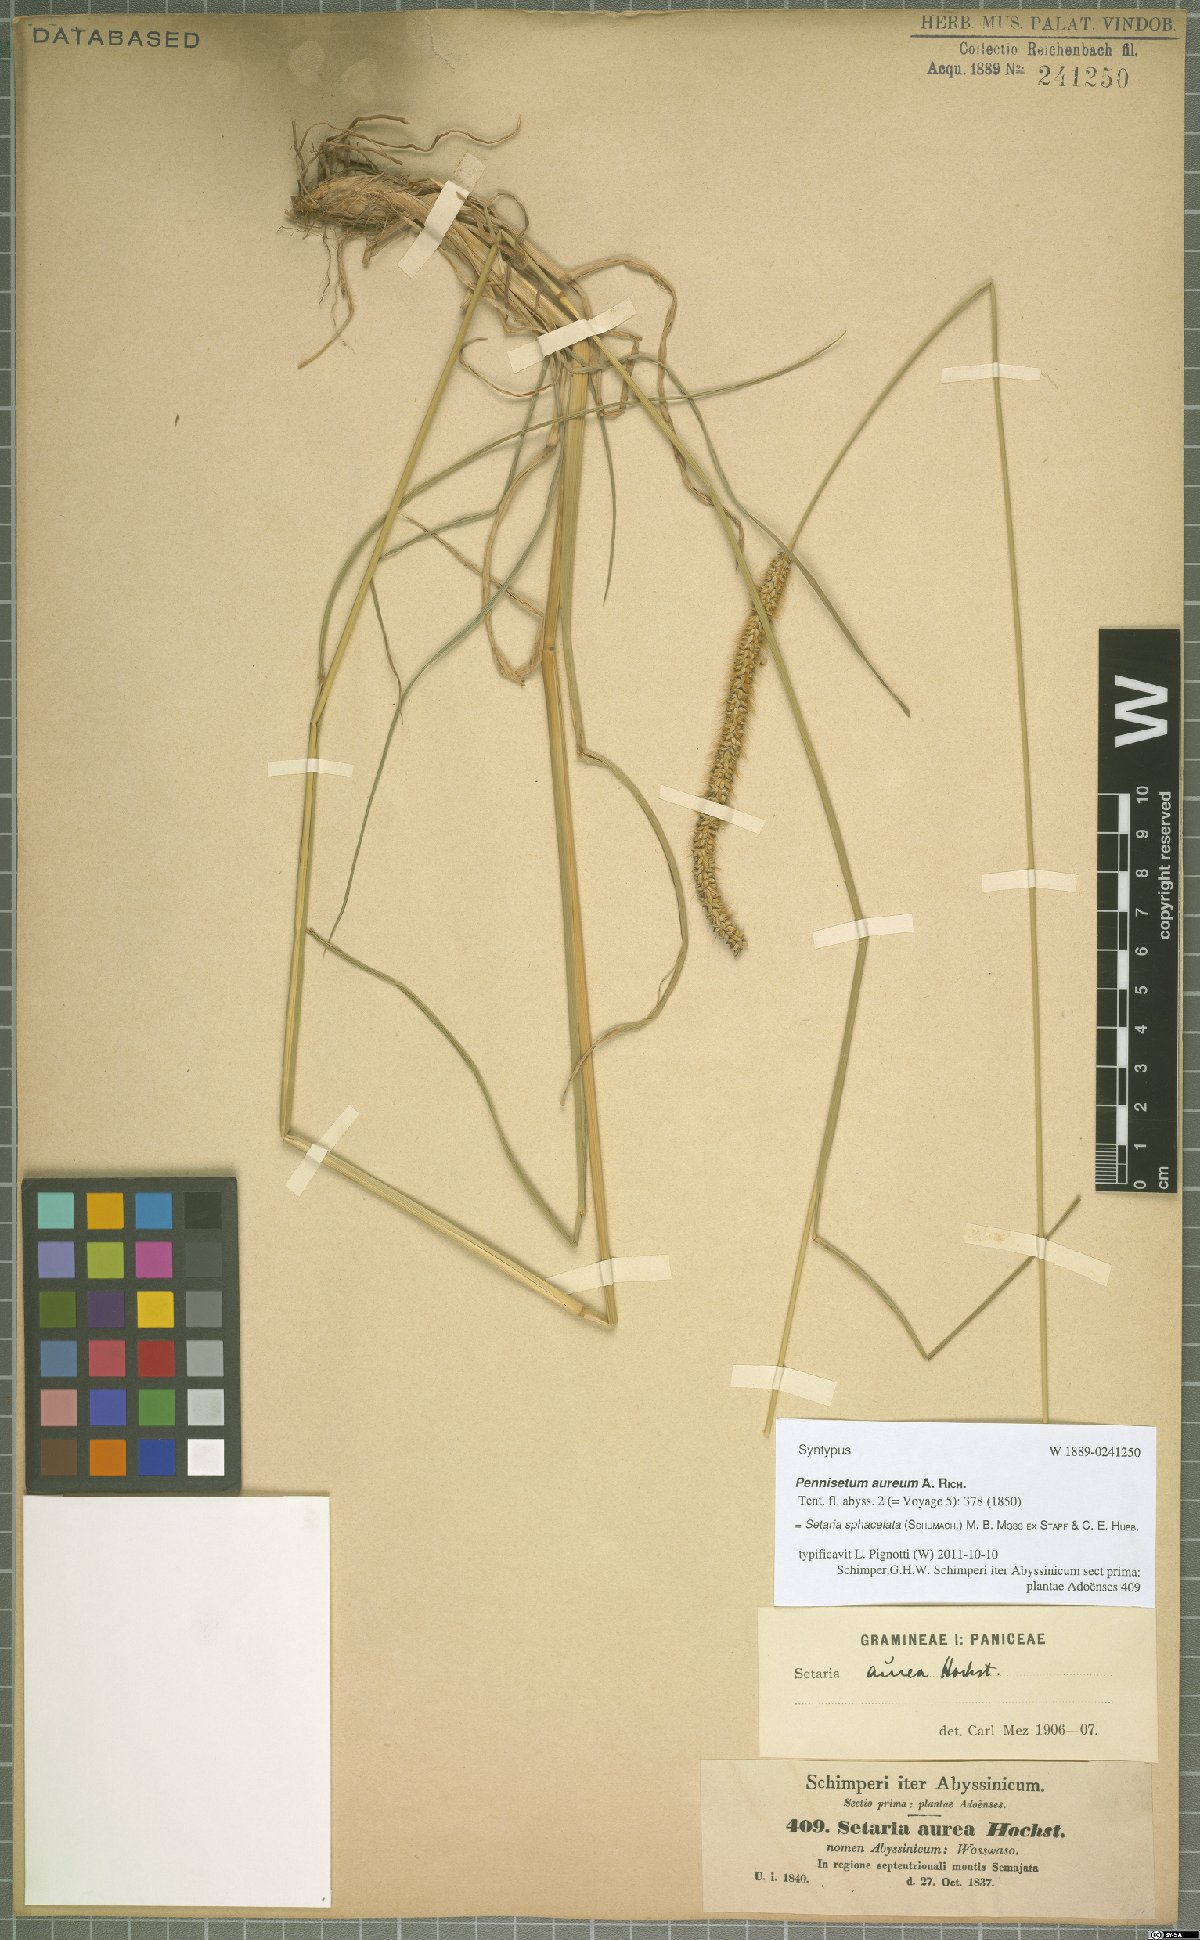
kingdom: Plantae
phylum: Tracheophyta
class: Liliopsida
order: Poales
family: Poaceae
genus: Setaria
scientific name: Setaria sphacelata
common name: African bristlegrass
